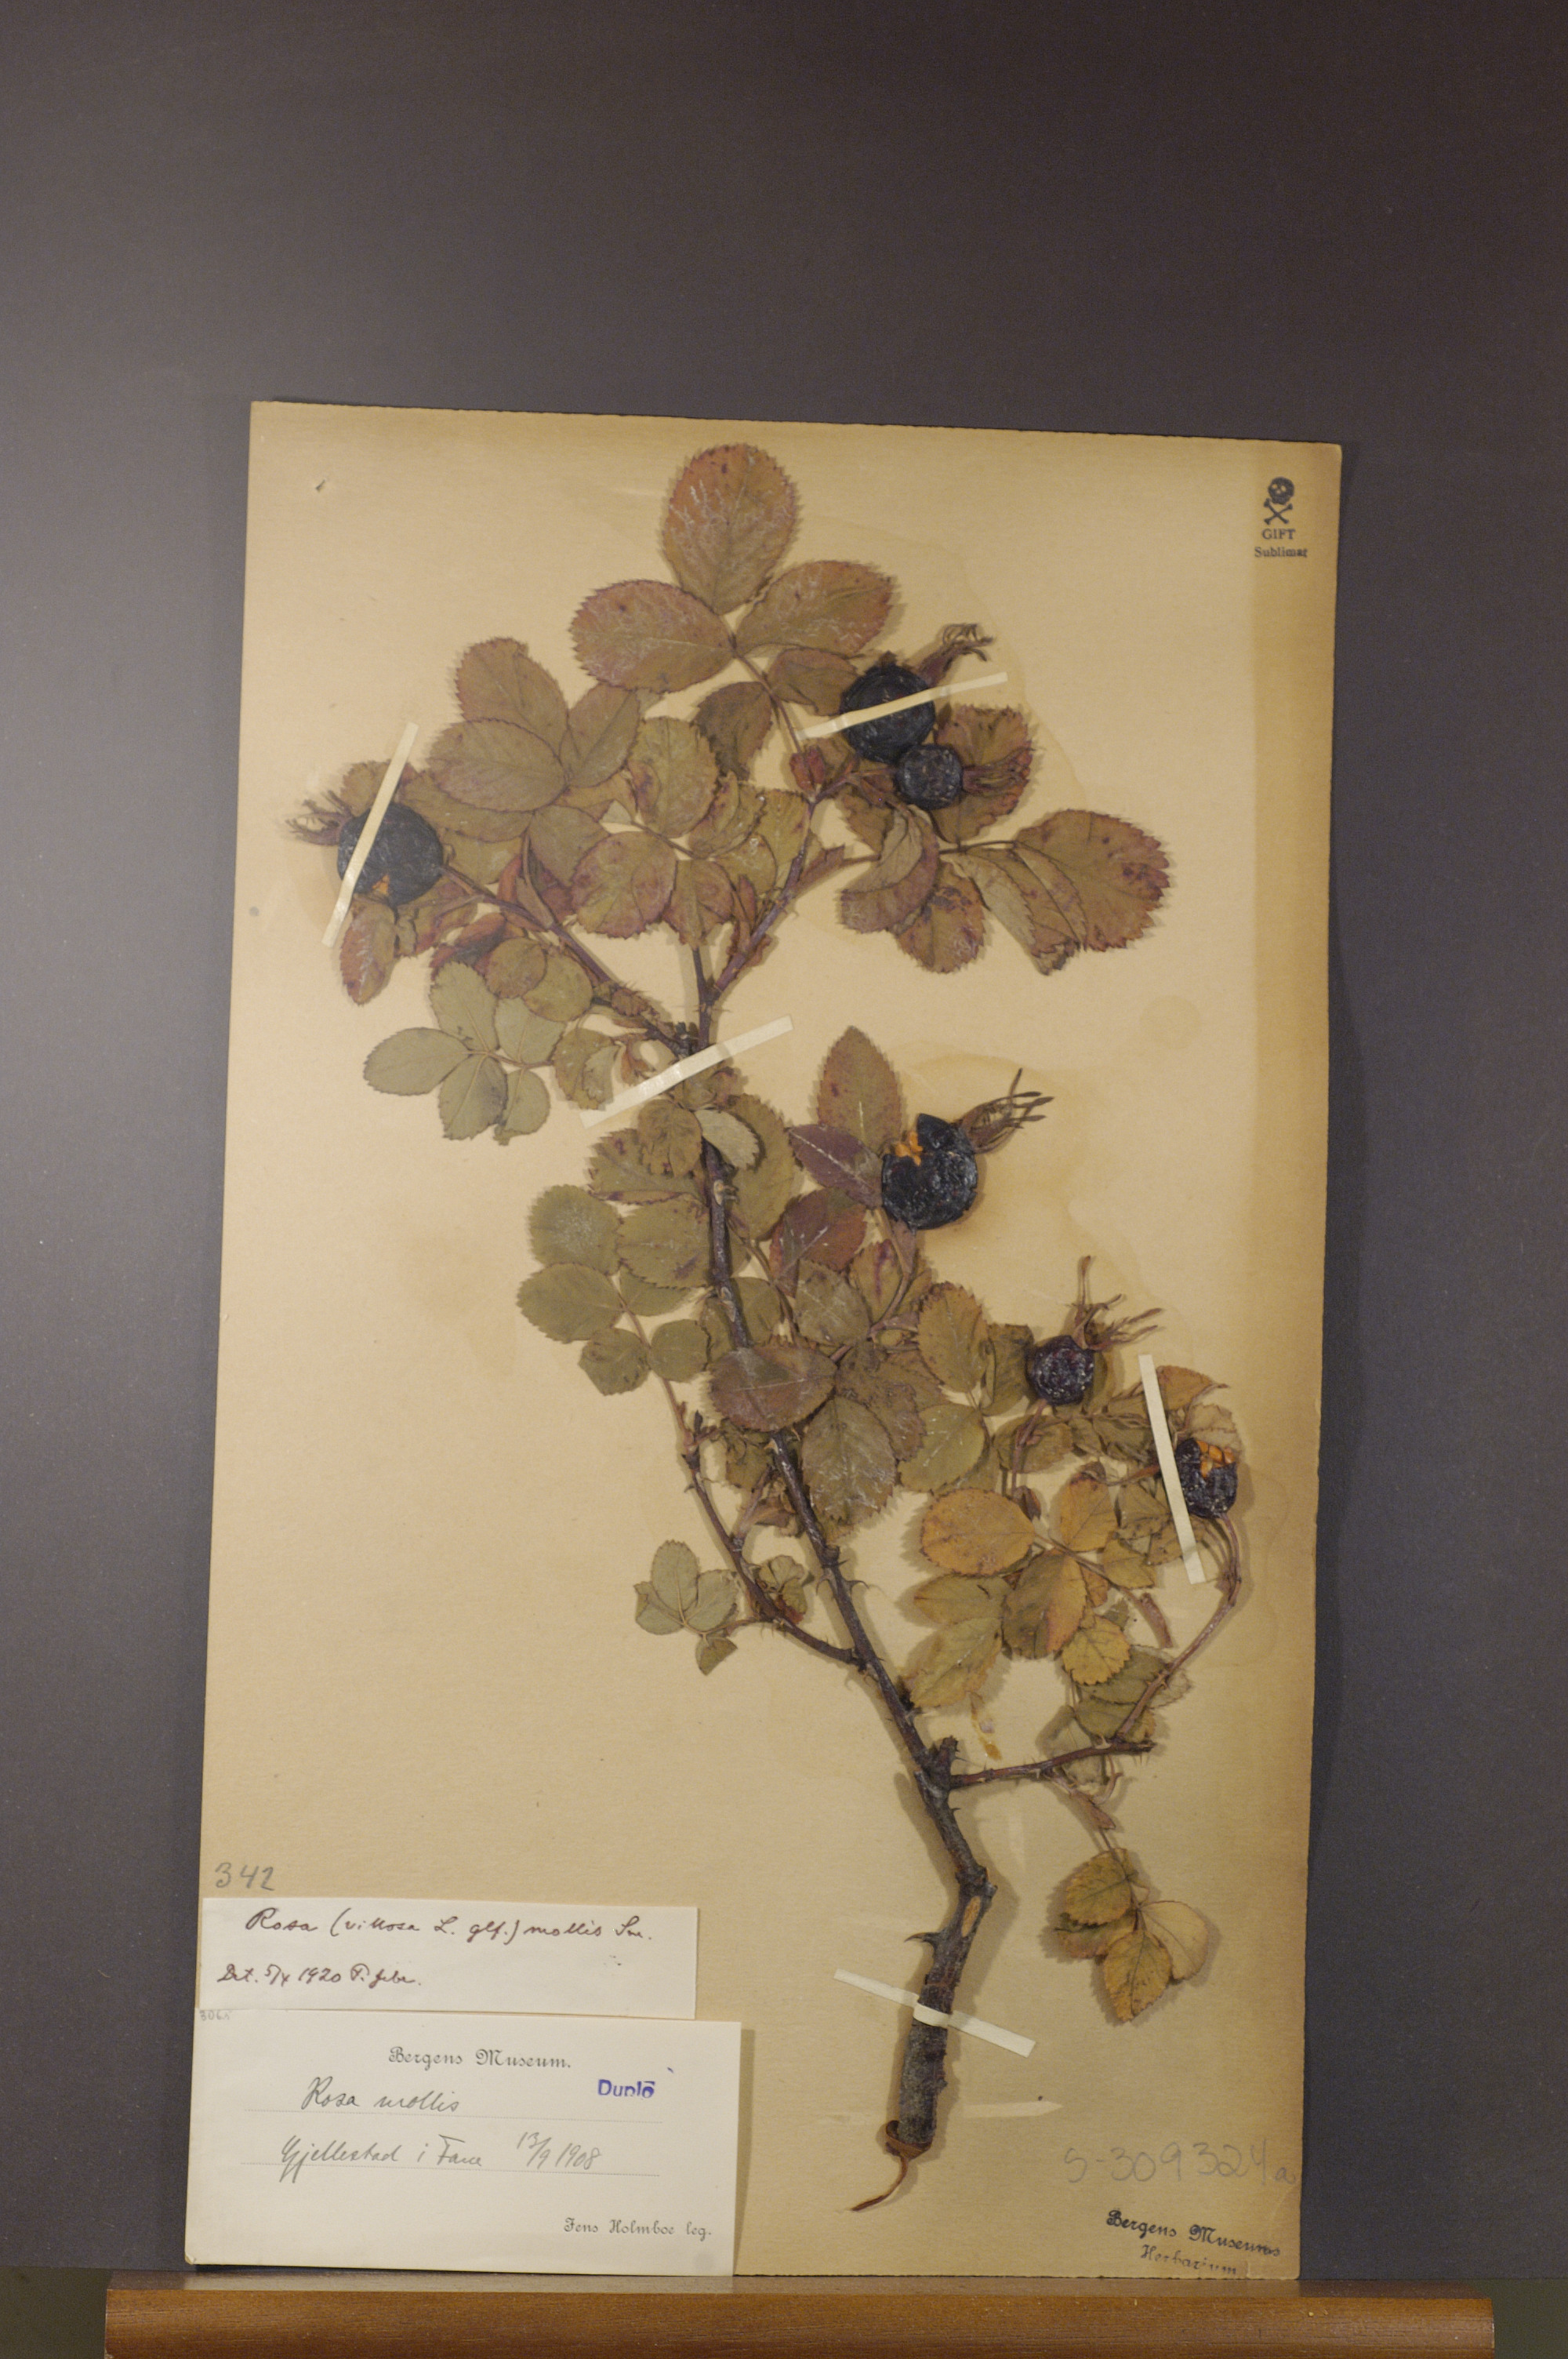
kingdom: Plantae
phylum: Tracheophyta
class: Magnoliopsida
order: Rosales
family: Rosaceae
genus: Rosa
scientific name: Rosa mollis
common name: Rose
